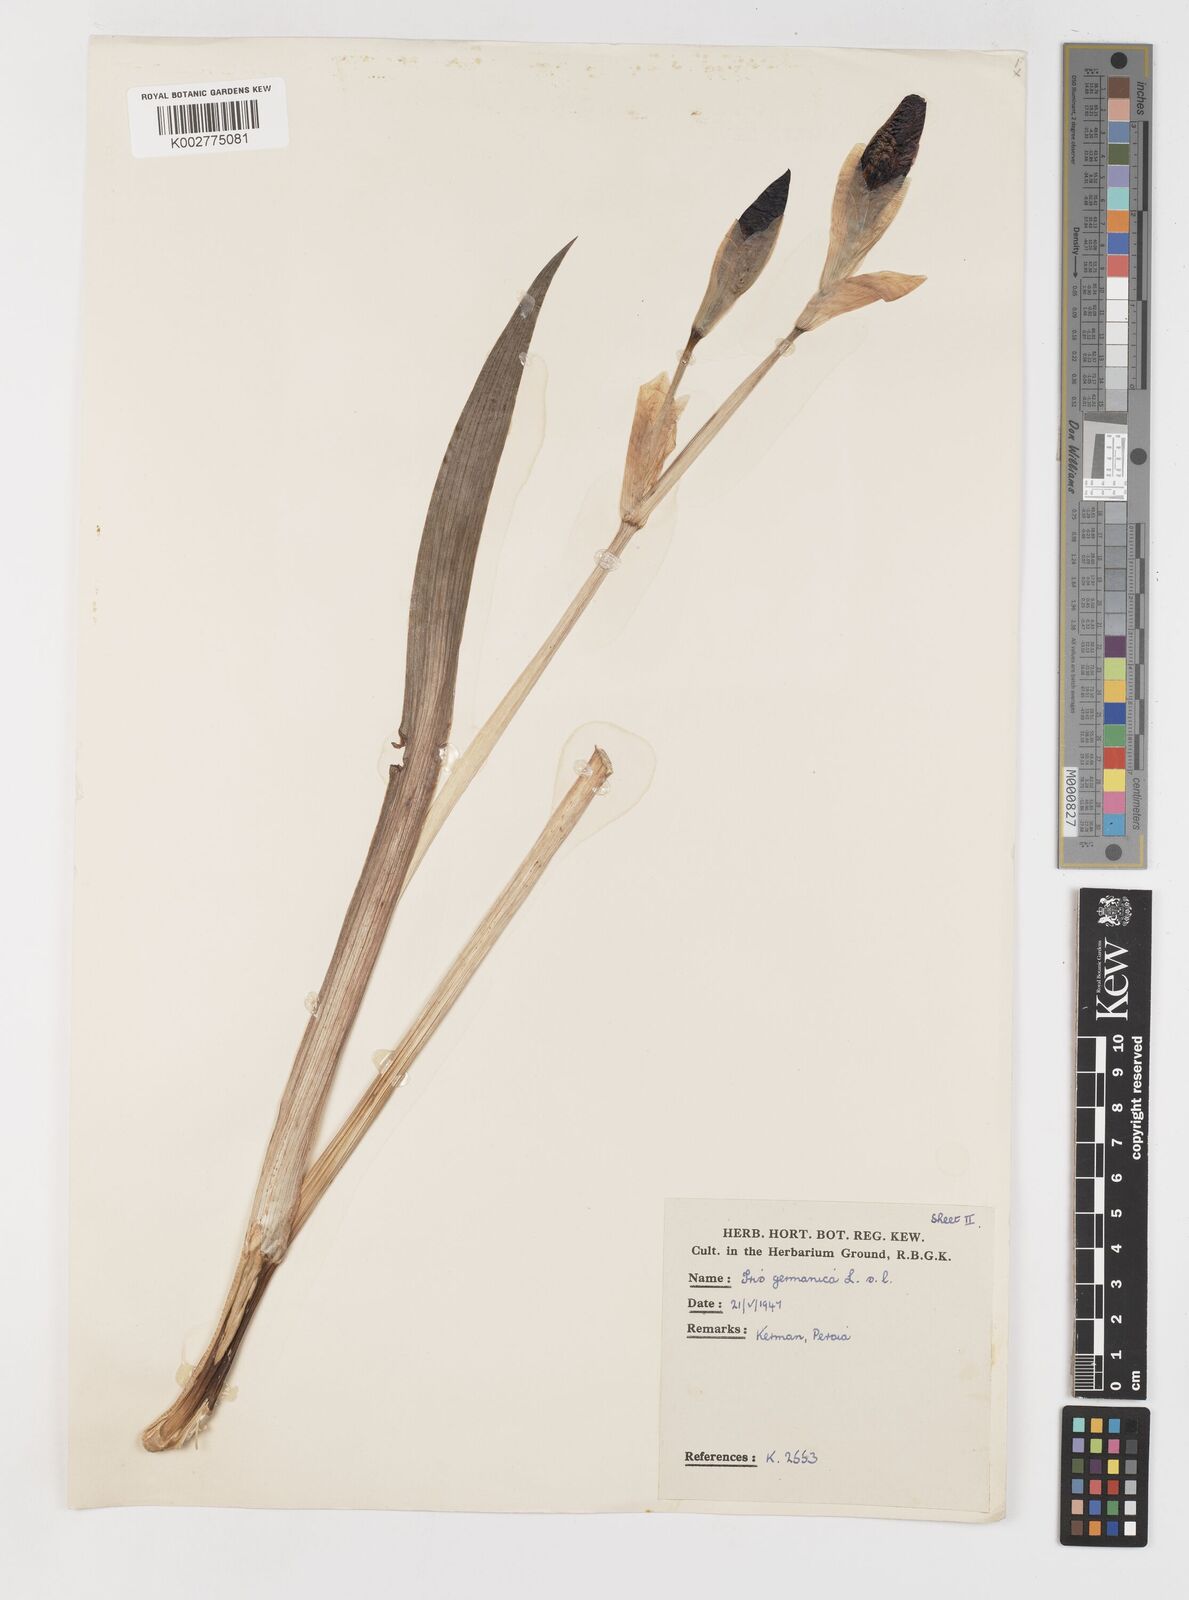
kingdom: Plantae
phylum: Tracheophyta
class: Liliopsida
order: Asparagales
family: Iridaceae
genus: Iris
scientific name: Iris germanica
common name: German iris
